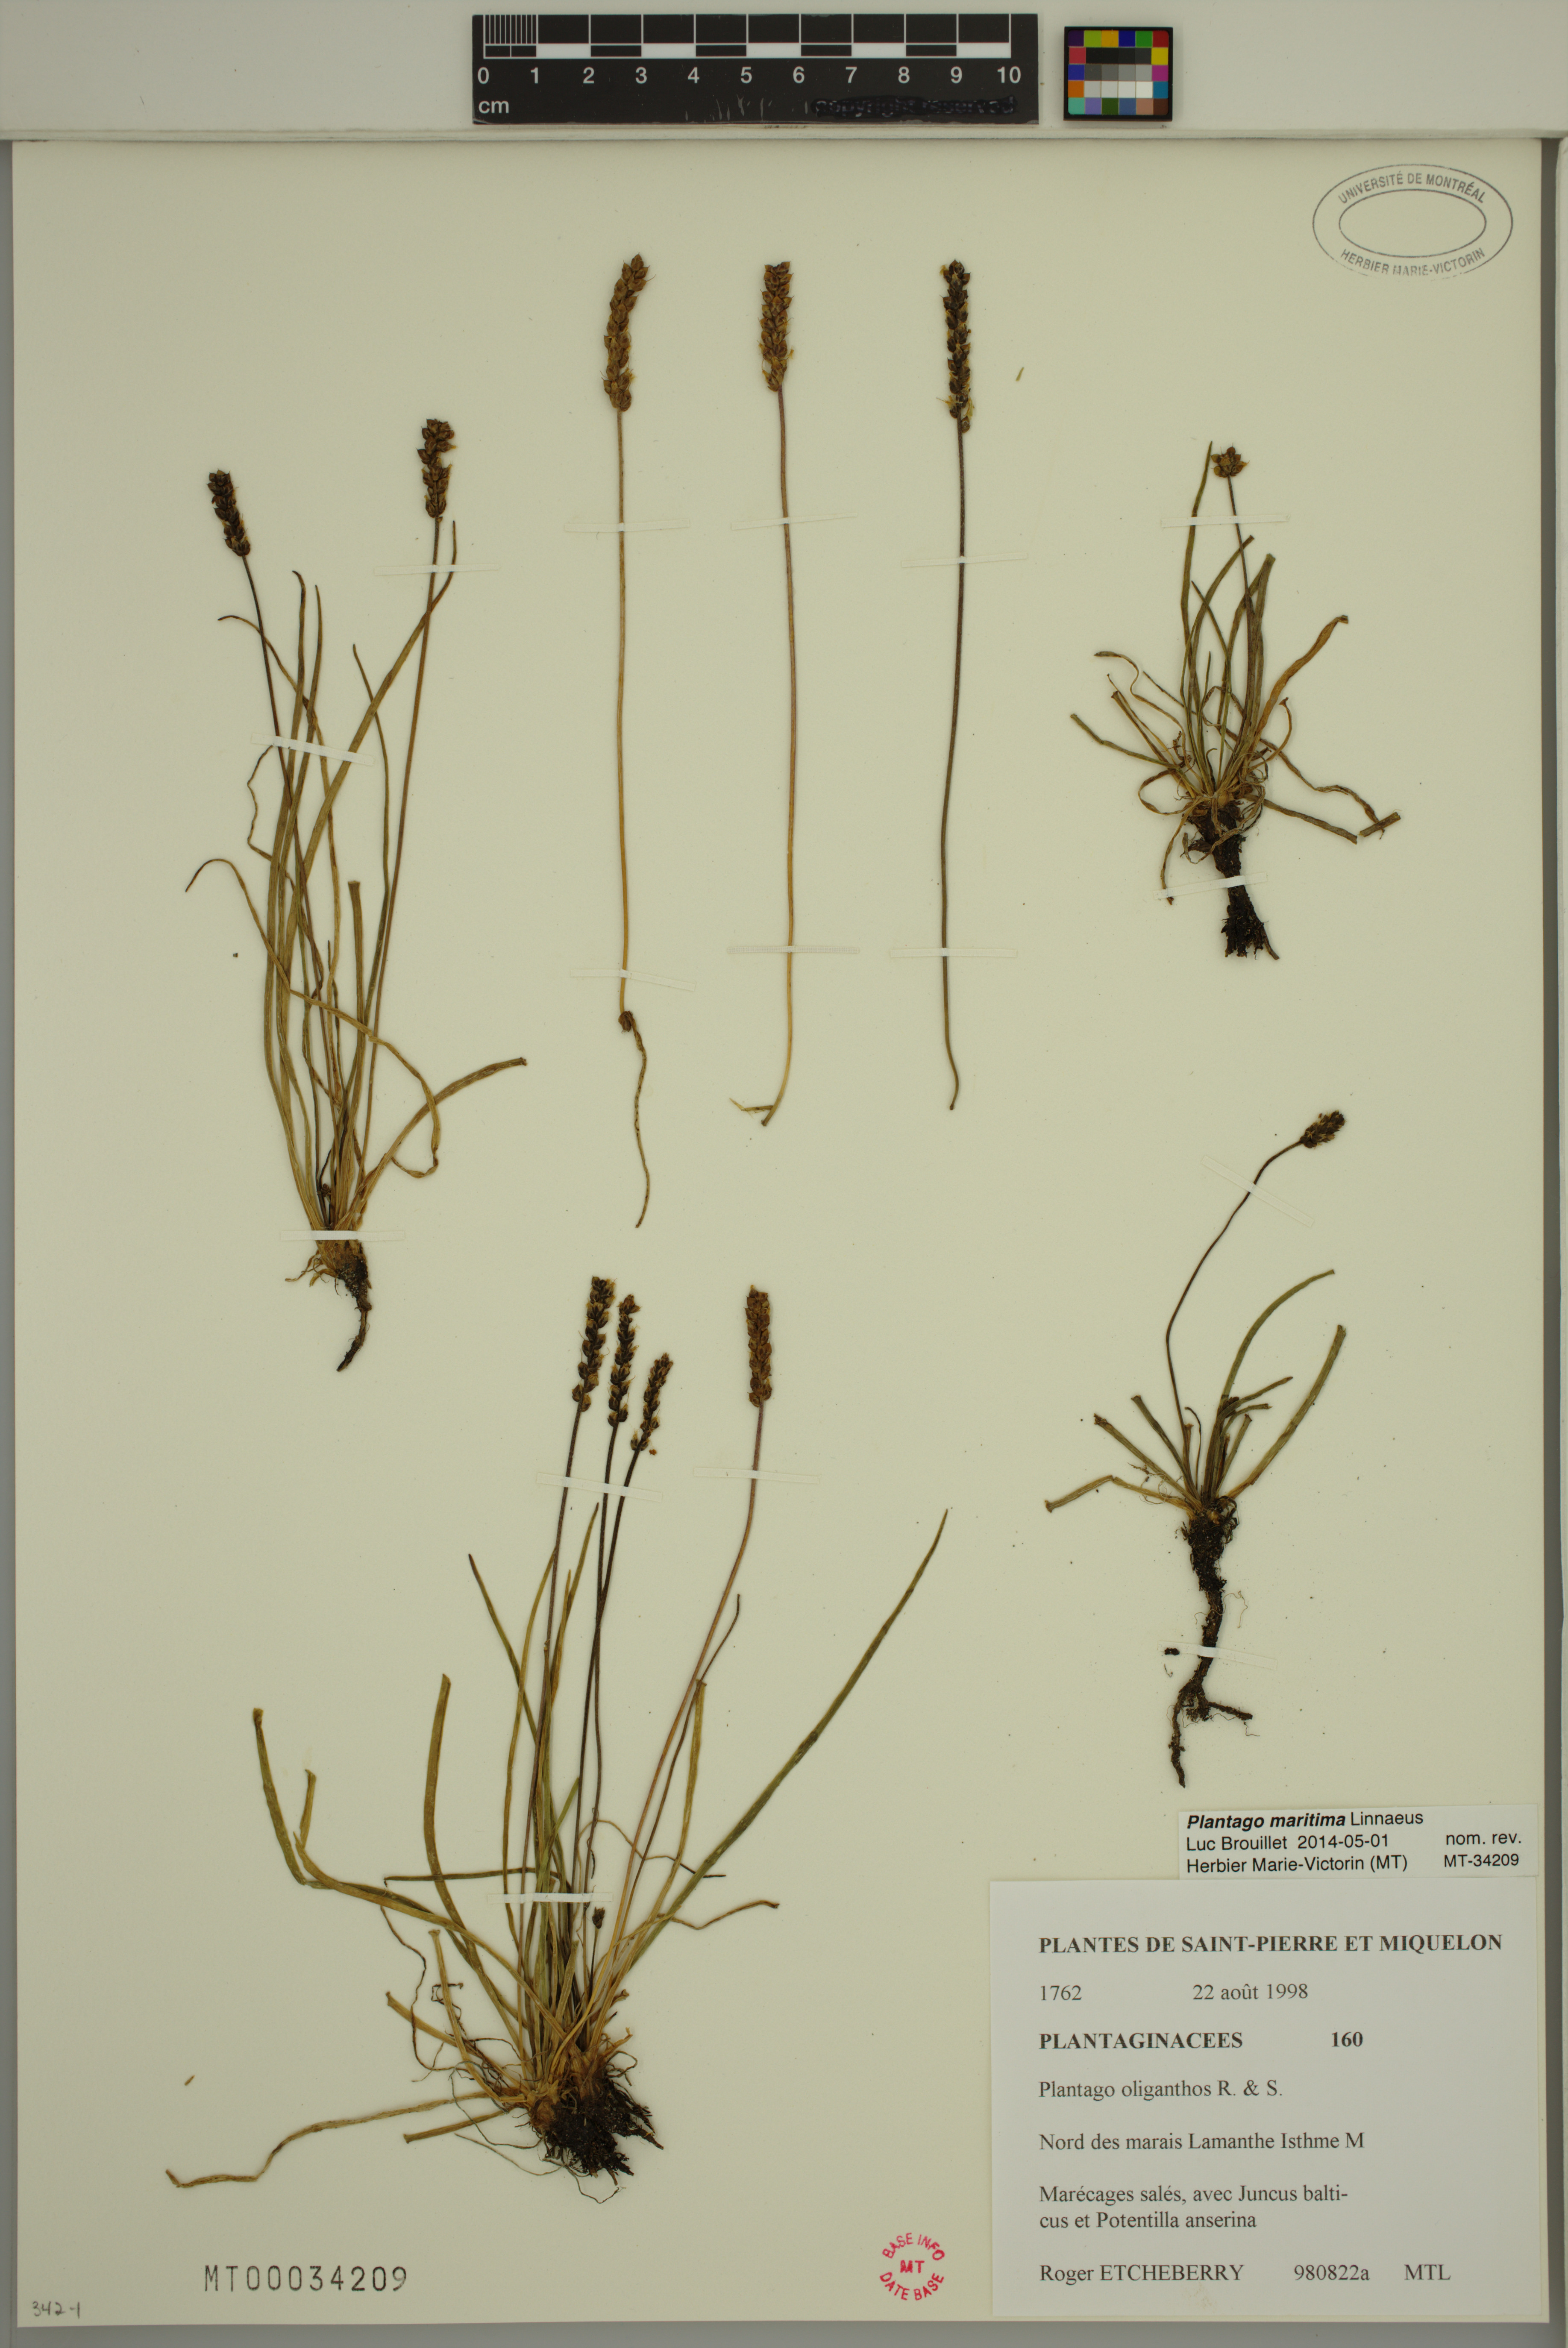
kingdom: Plantae
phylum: Tracheophyta
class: Magnoliopsida
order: Lamiales
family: Plantaginaceae
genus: Plantago
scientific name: Plantago maritima
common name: Sea plantain
